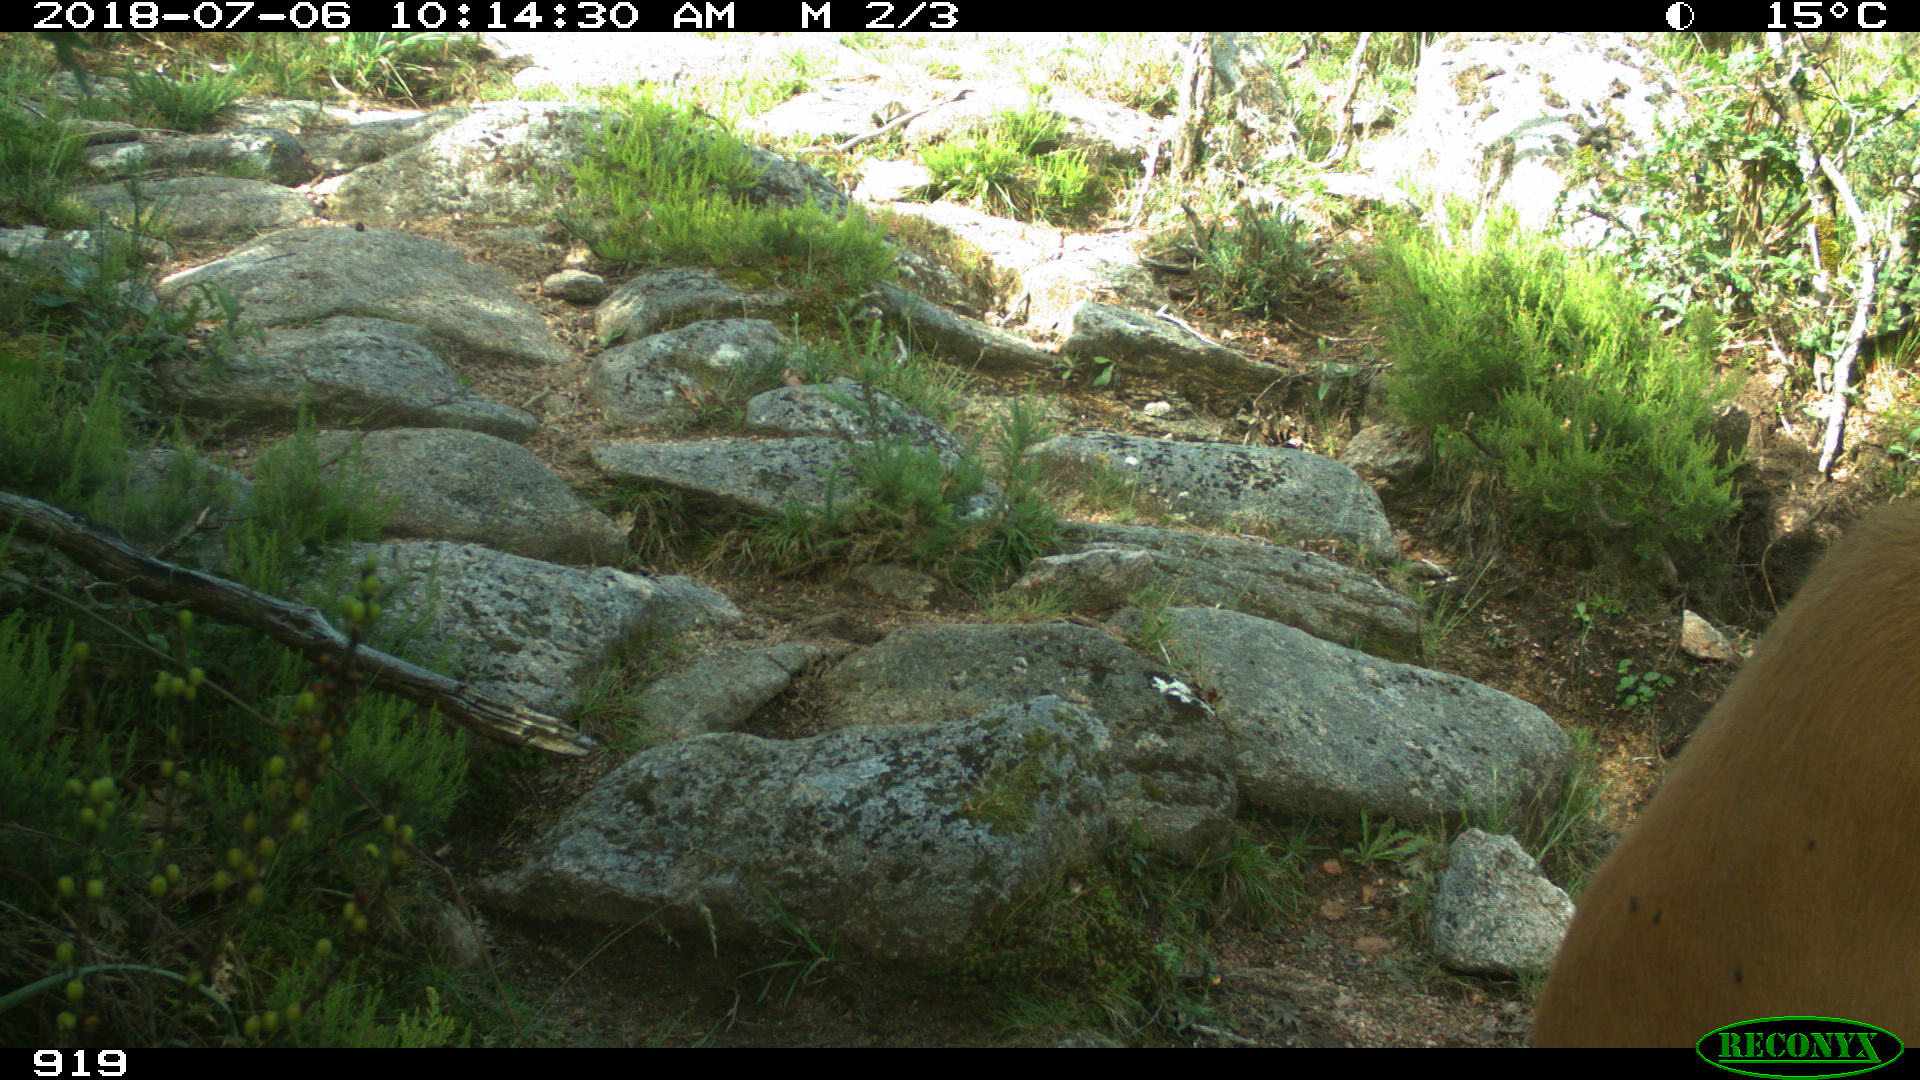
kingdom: Animalia
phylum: Chordata
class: Mammalia
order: Artiodactyla
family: Bovidae
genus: Bos
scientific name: Bos taurus
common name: Domesticated cattle
